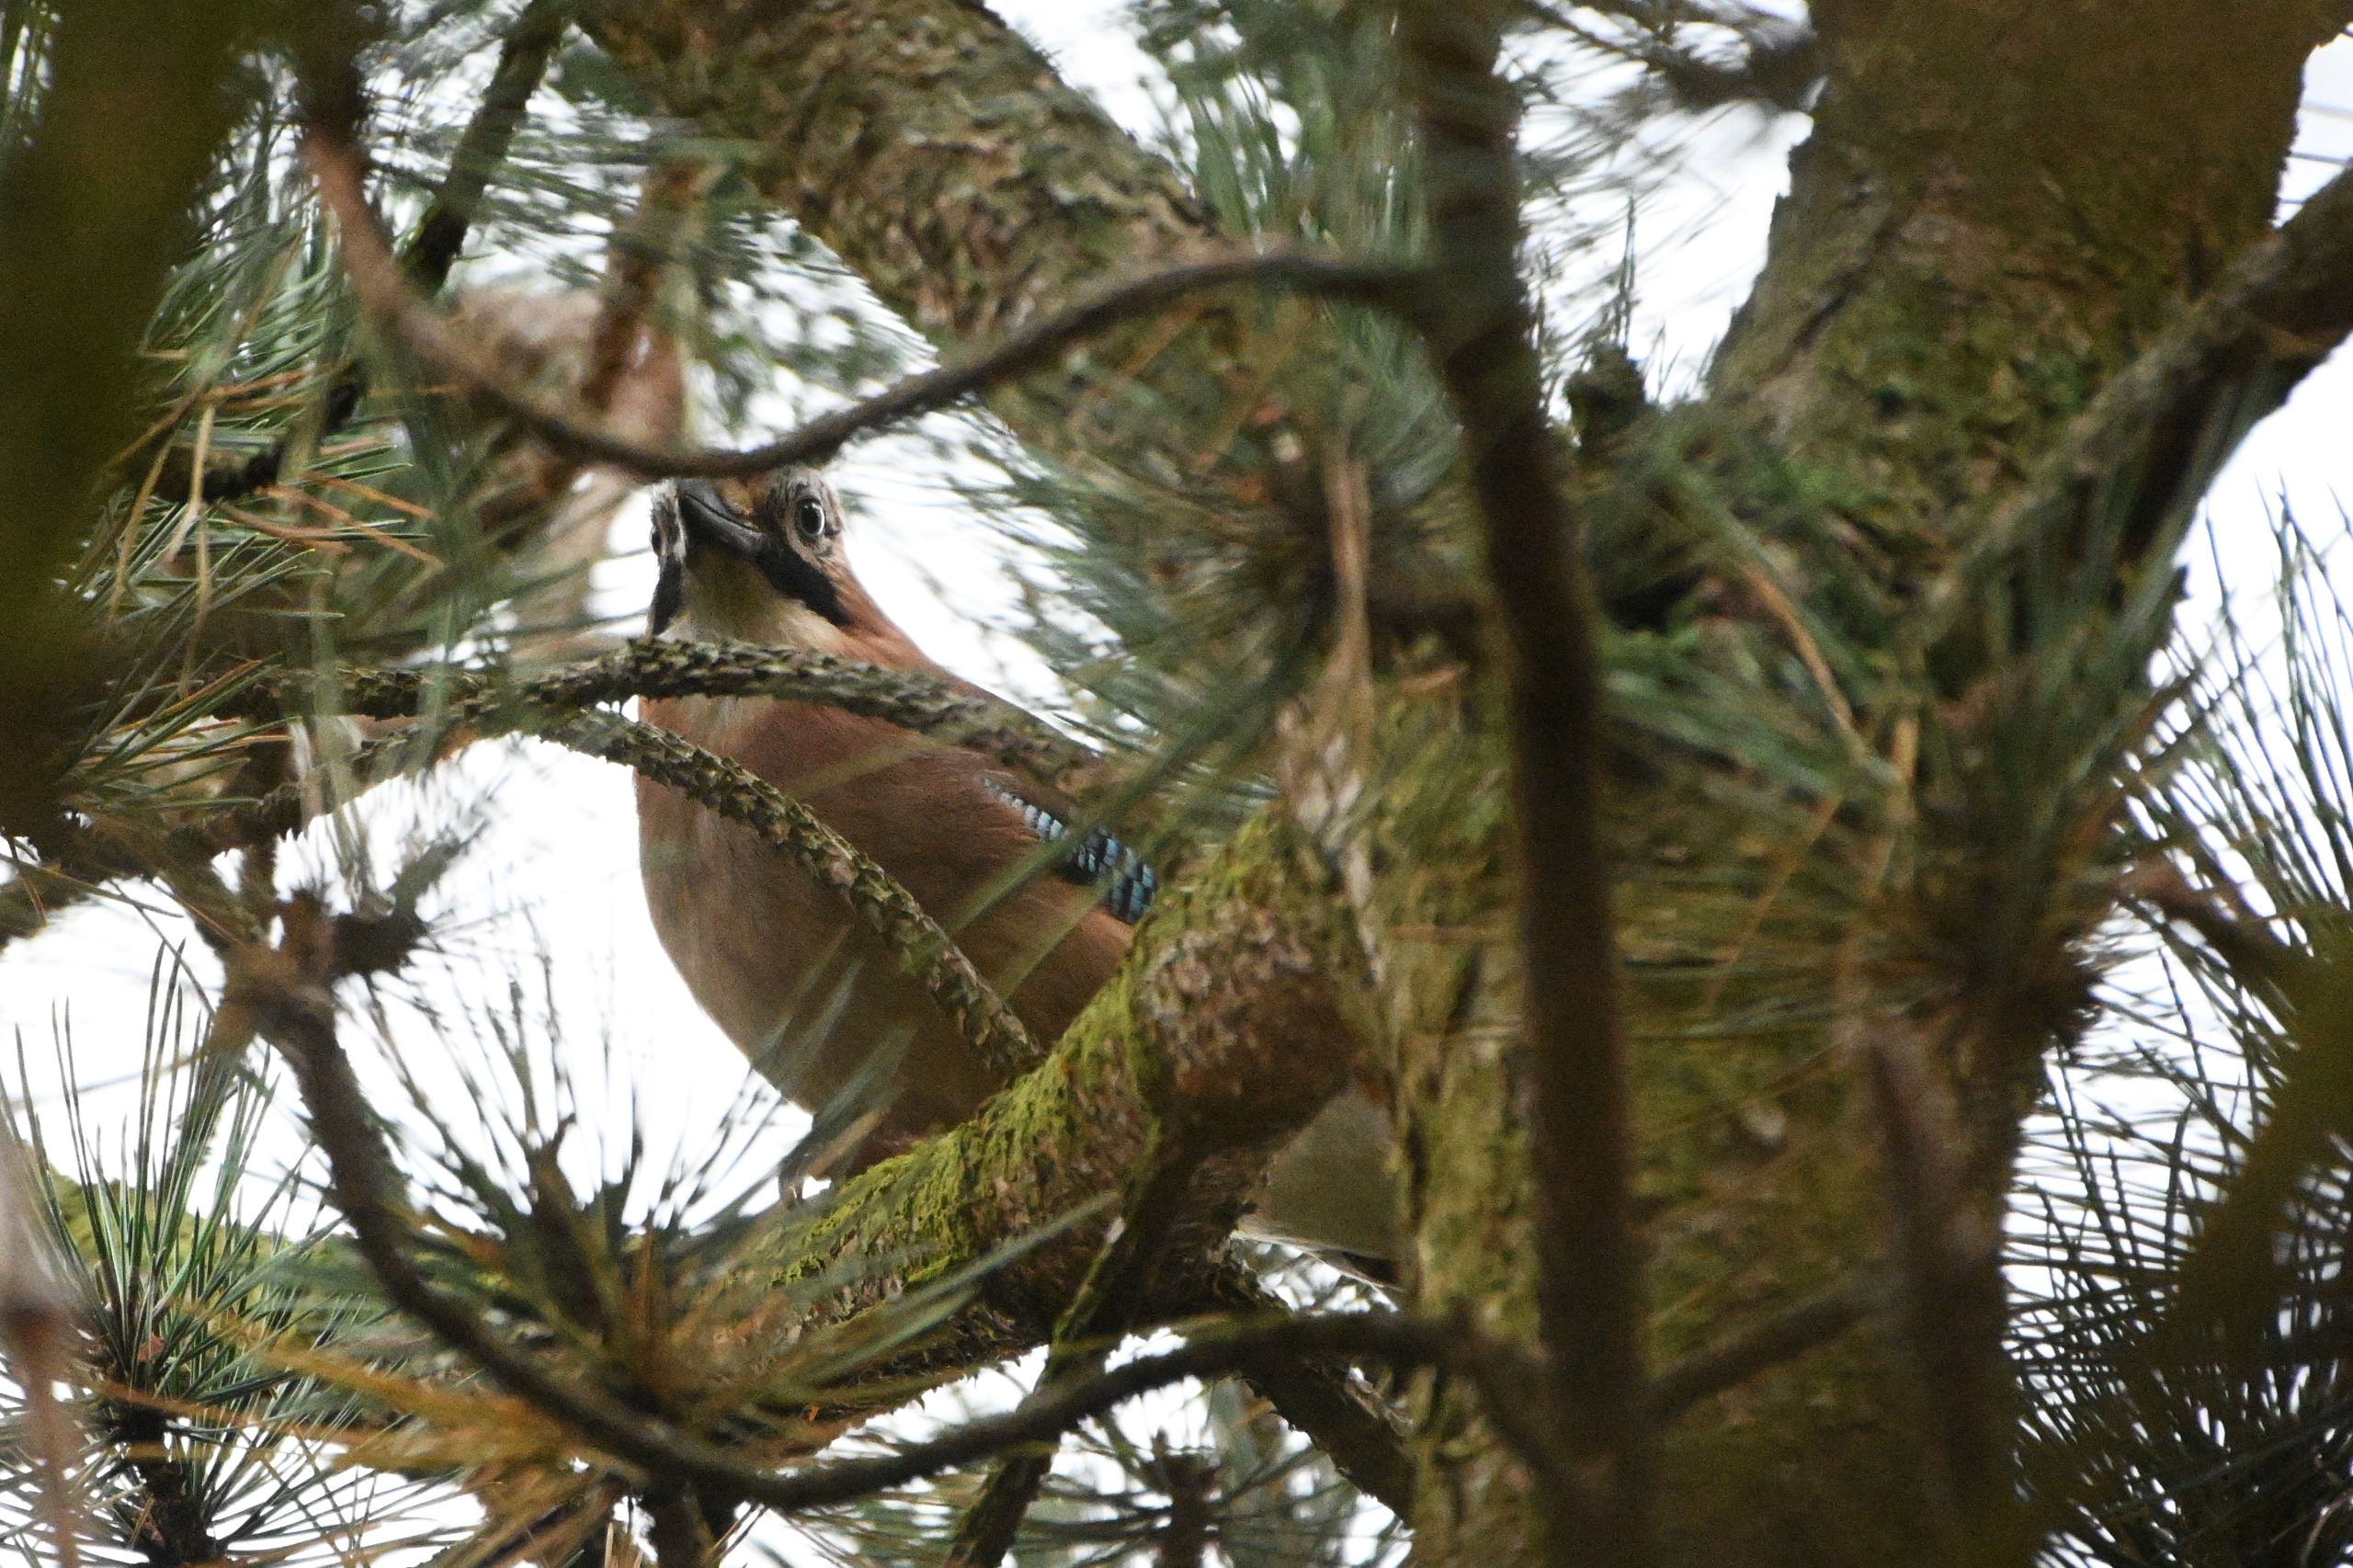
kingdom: Animalia
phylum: Chordata
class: Aves
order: Passeriformes
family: Corvidae
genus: Garrulus
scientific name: Garrulus glandarius
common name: Skovskade
